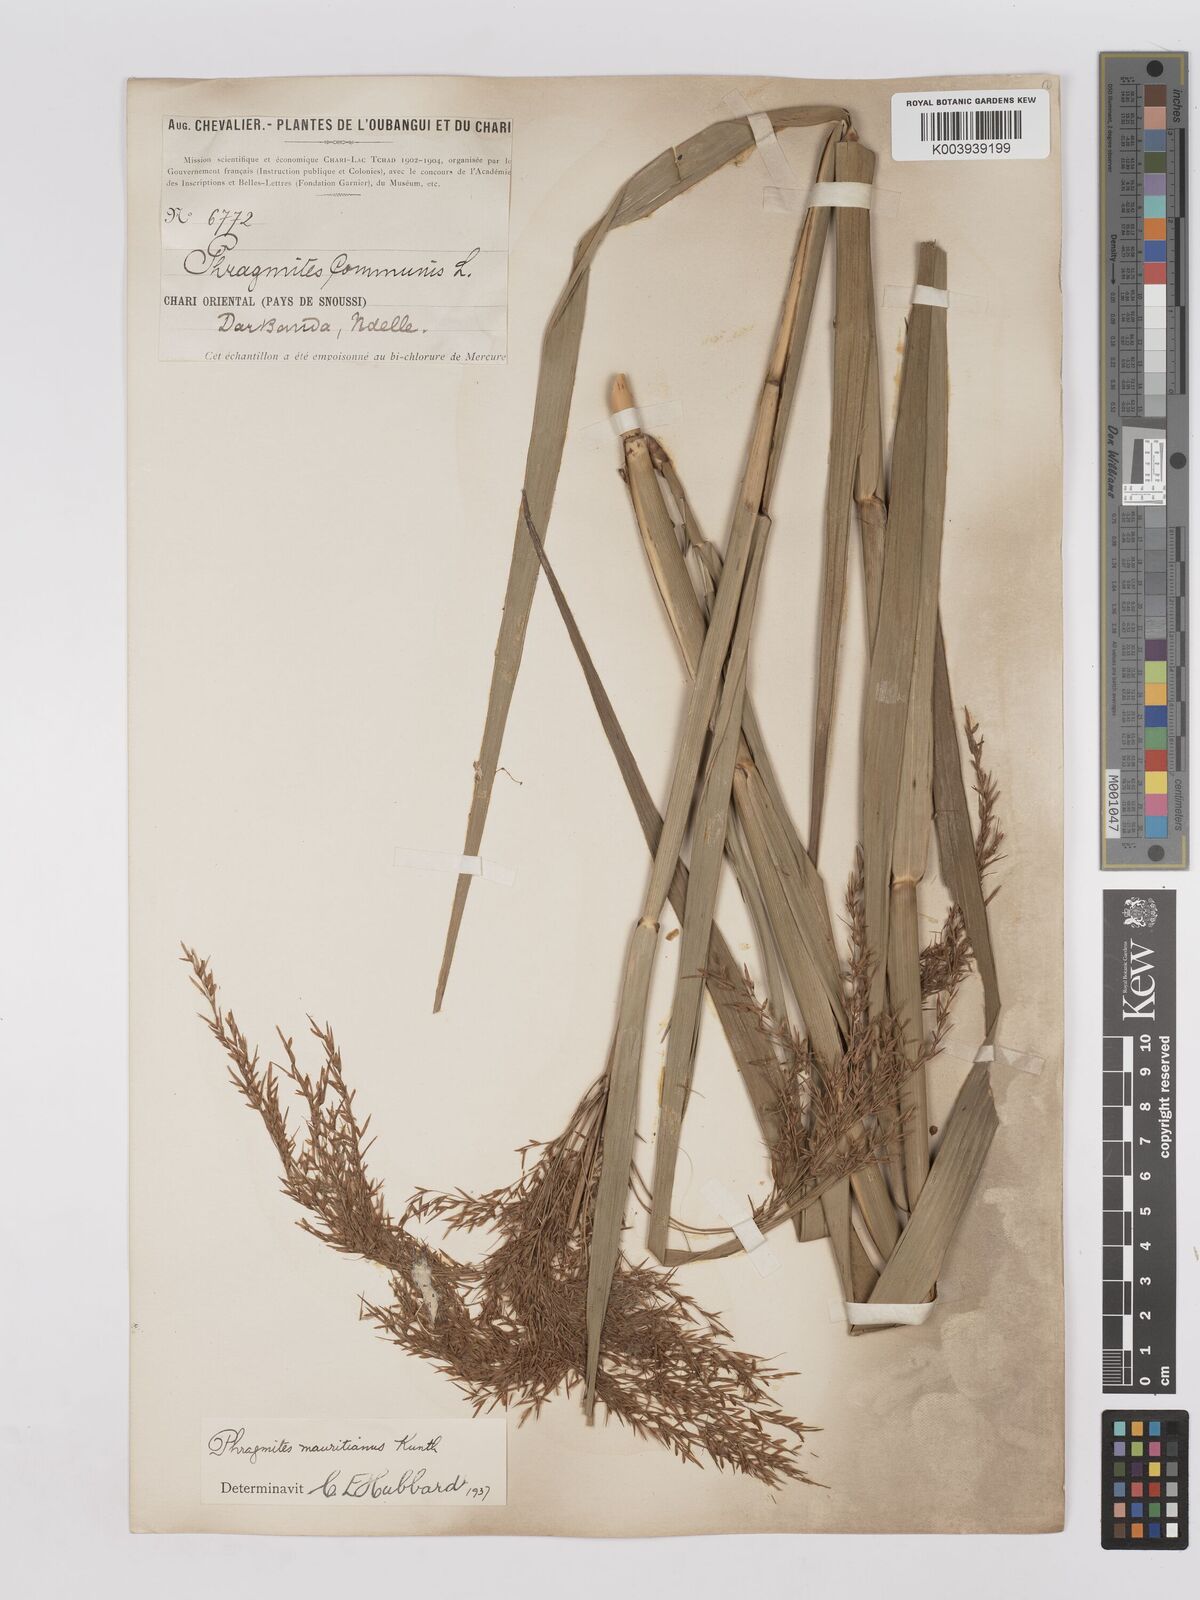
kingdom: Plantae
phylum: Tracheophyta
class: Liliopsida
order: Poales
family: Poaceae
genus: Phragmites
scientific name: Phragmites karka
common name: Tropical reed
